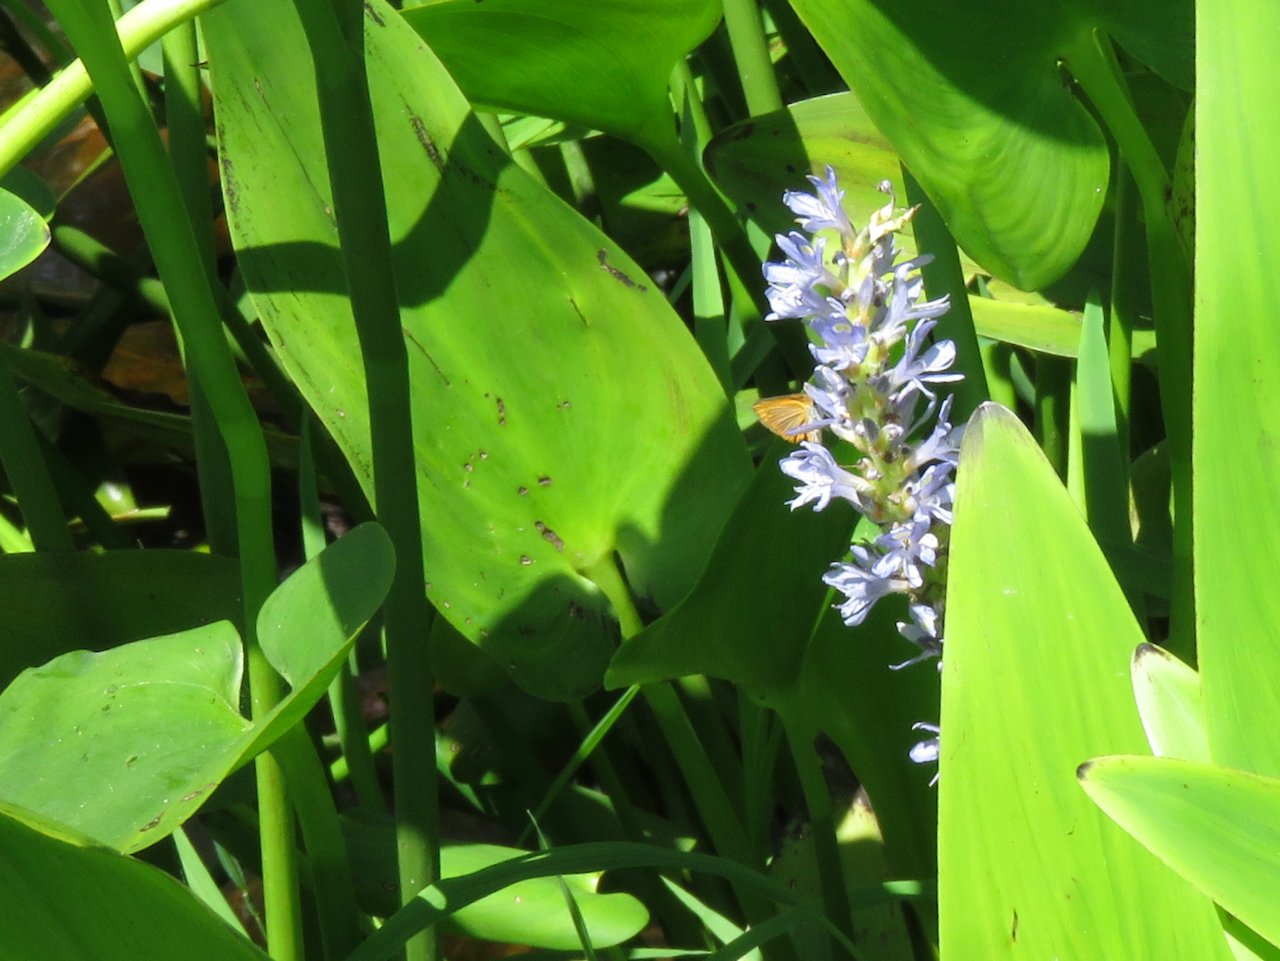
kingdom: Animalia
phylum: Arthropoda
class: Insecta
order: Lepidoptera
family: Hesperiidae
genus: Ancyloxypha
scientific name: Ancyloxypha numitor
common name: Least Skipper
